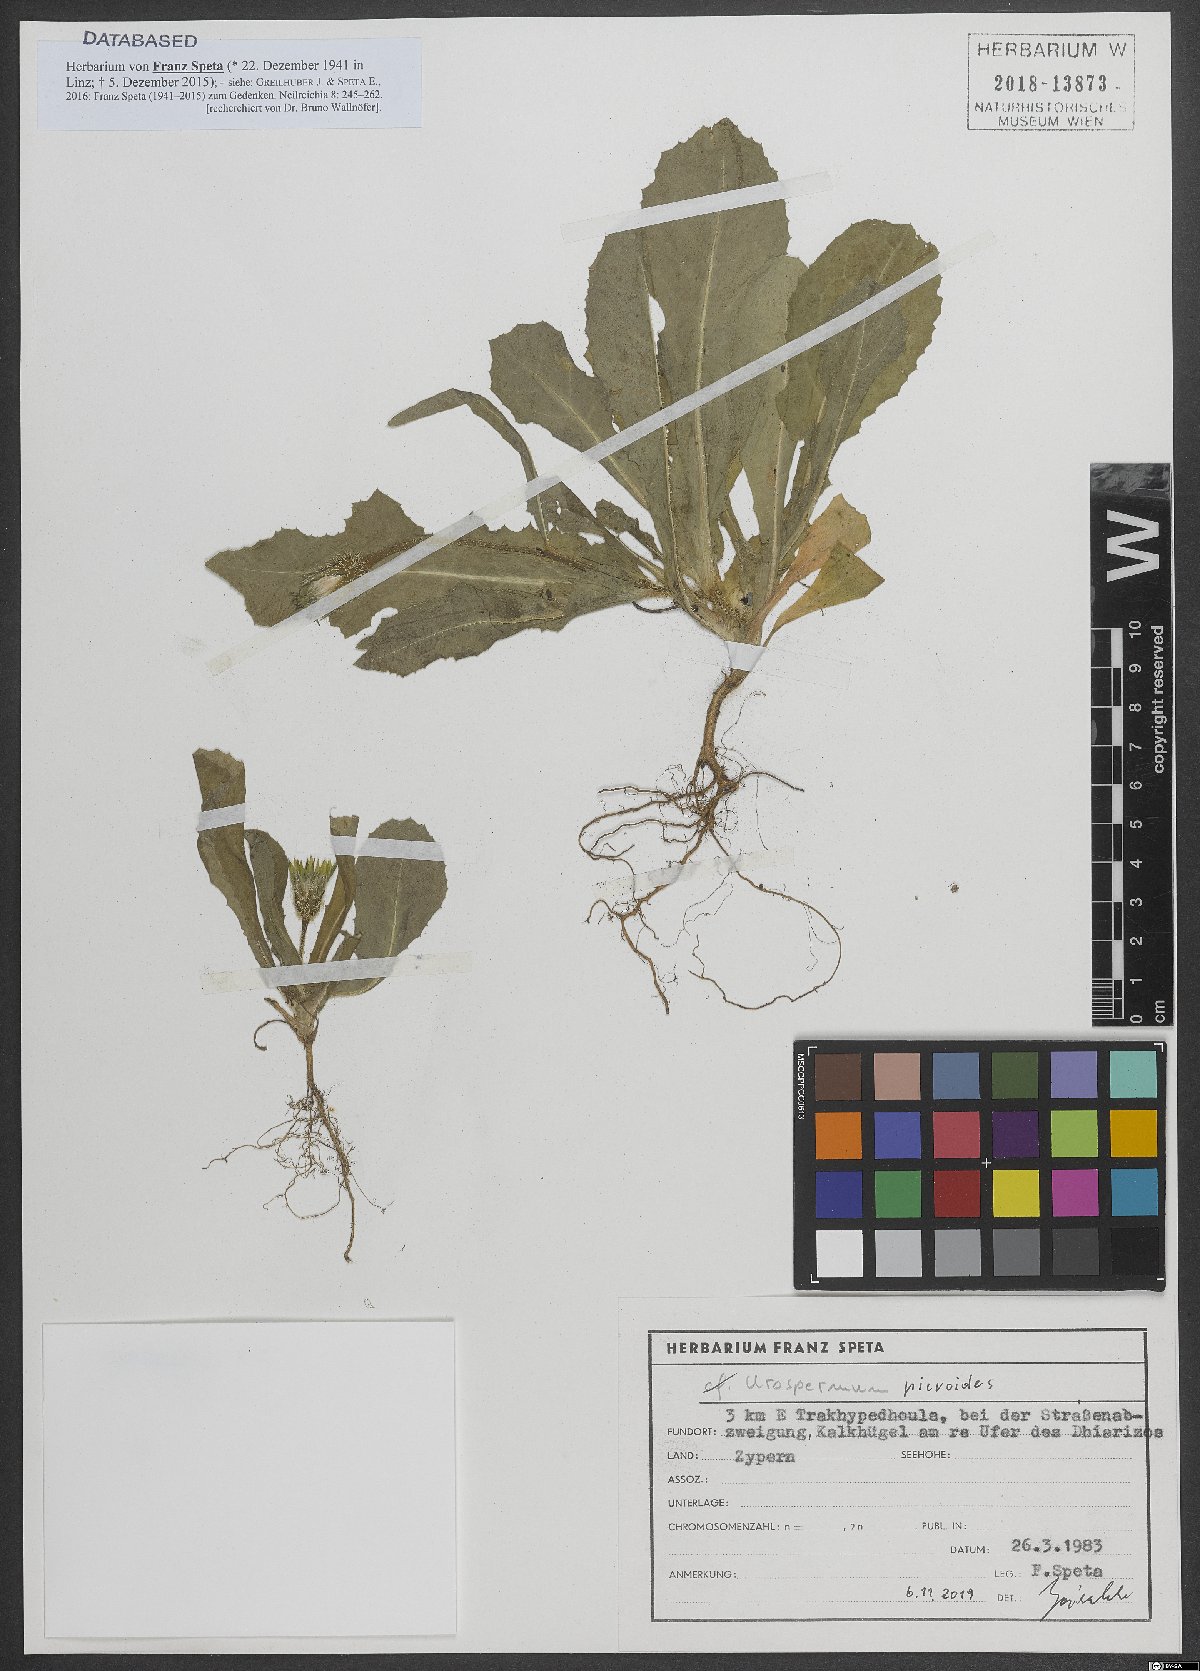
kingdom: Plantae
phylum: Tracheophyta
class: Magnoliopsida
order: Asterales
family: Asteraceae
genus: Urospermum
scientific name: Urospermum picroides
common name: False hawkbit
